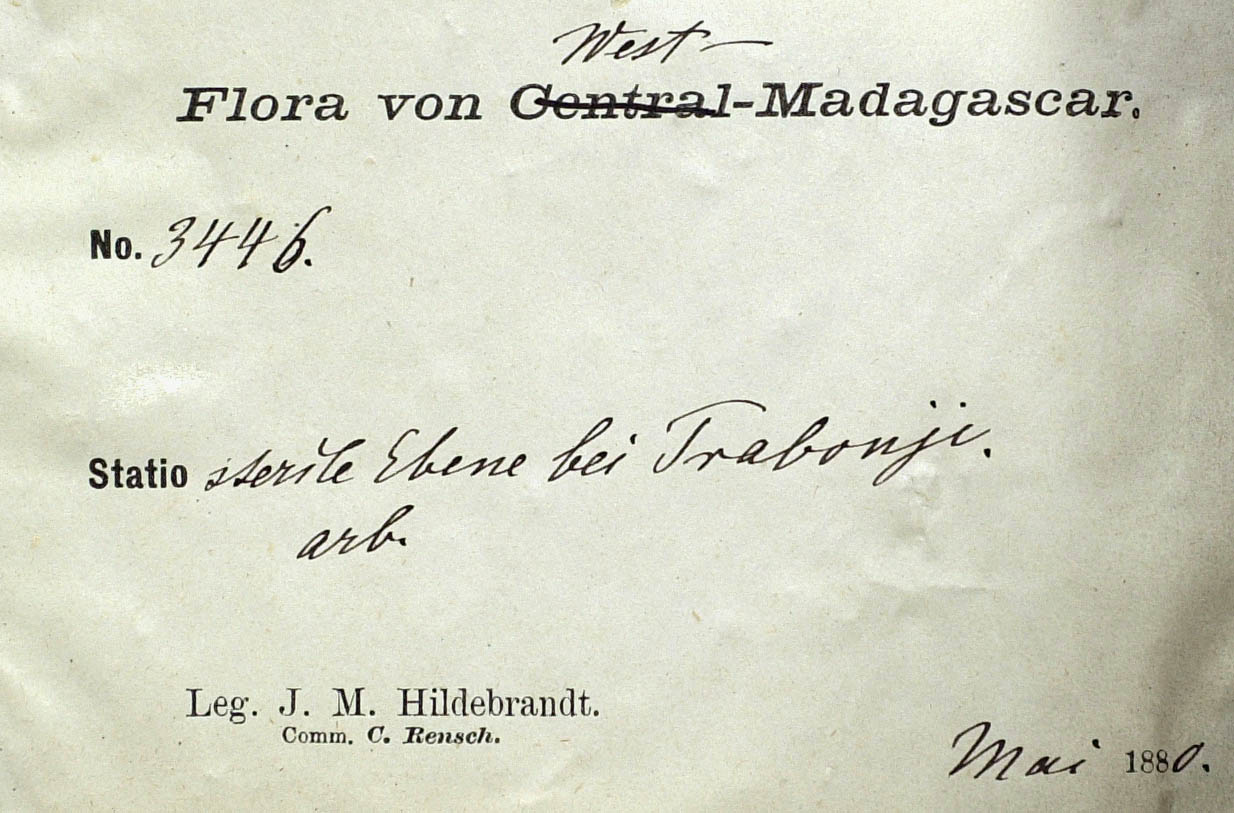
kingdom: Plantae
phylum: Tracheophyta
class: Magnoliopsida
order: Asterales
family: Asteraceae
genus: Dicoma
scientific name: Dicoma incana
